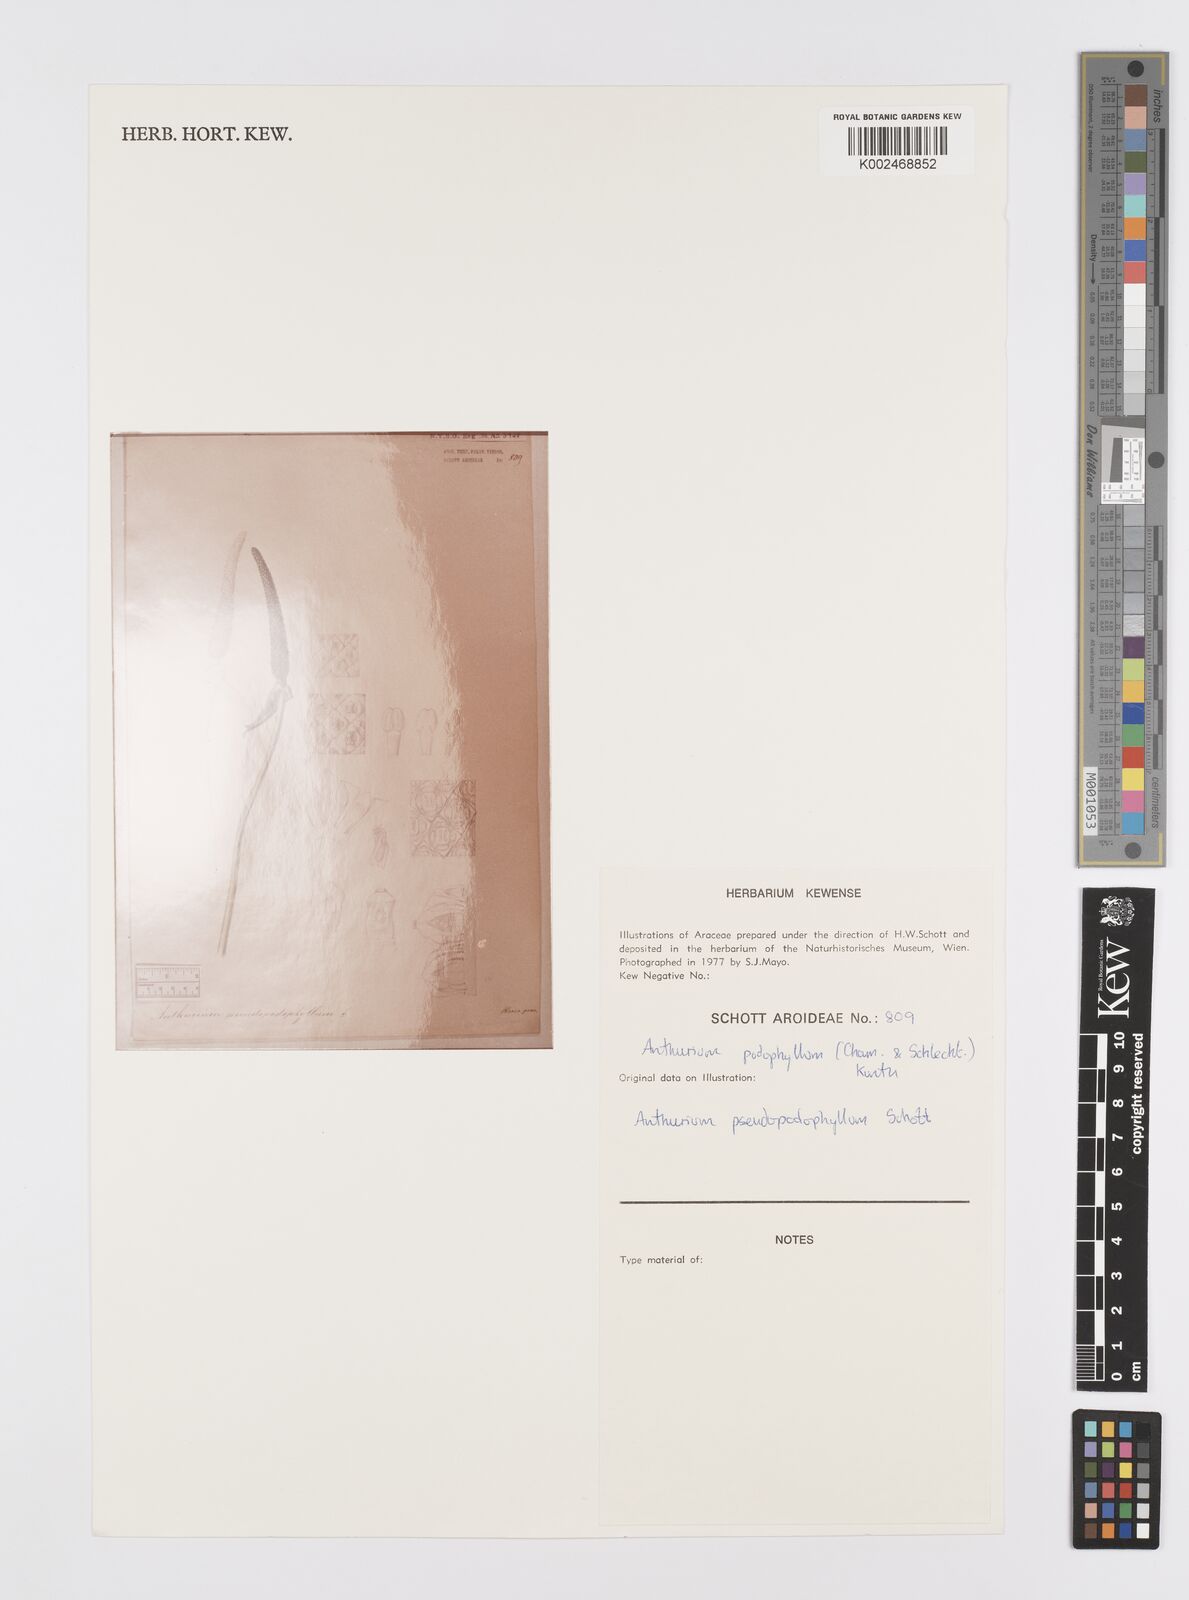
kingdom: Plantae
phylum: Tracheophyta
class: Liliopsida
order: Alismatales
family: Araceae
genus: Anthurium
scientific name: Anthurium podophyllum
